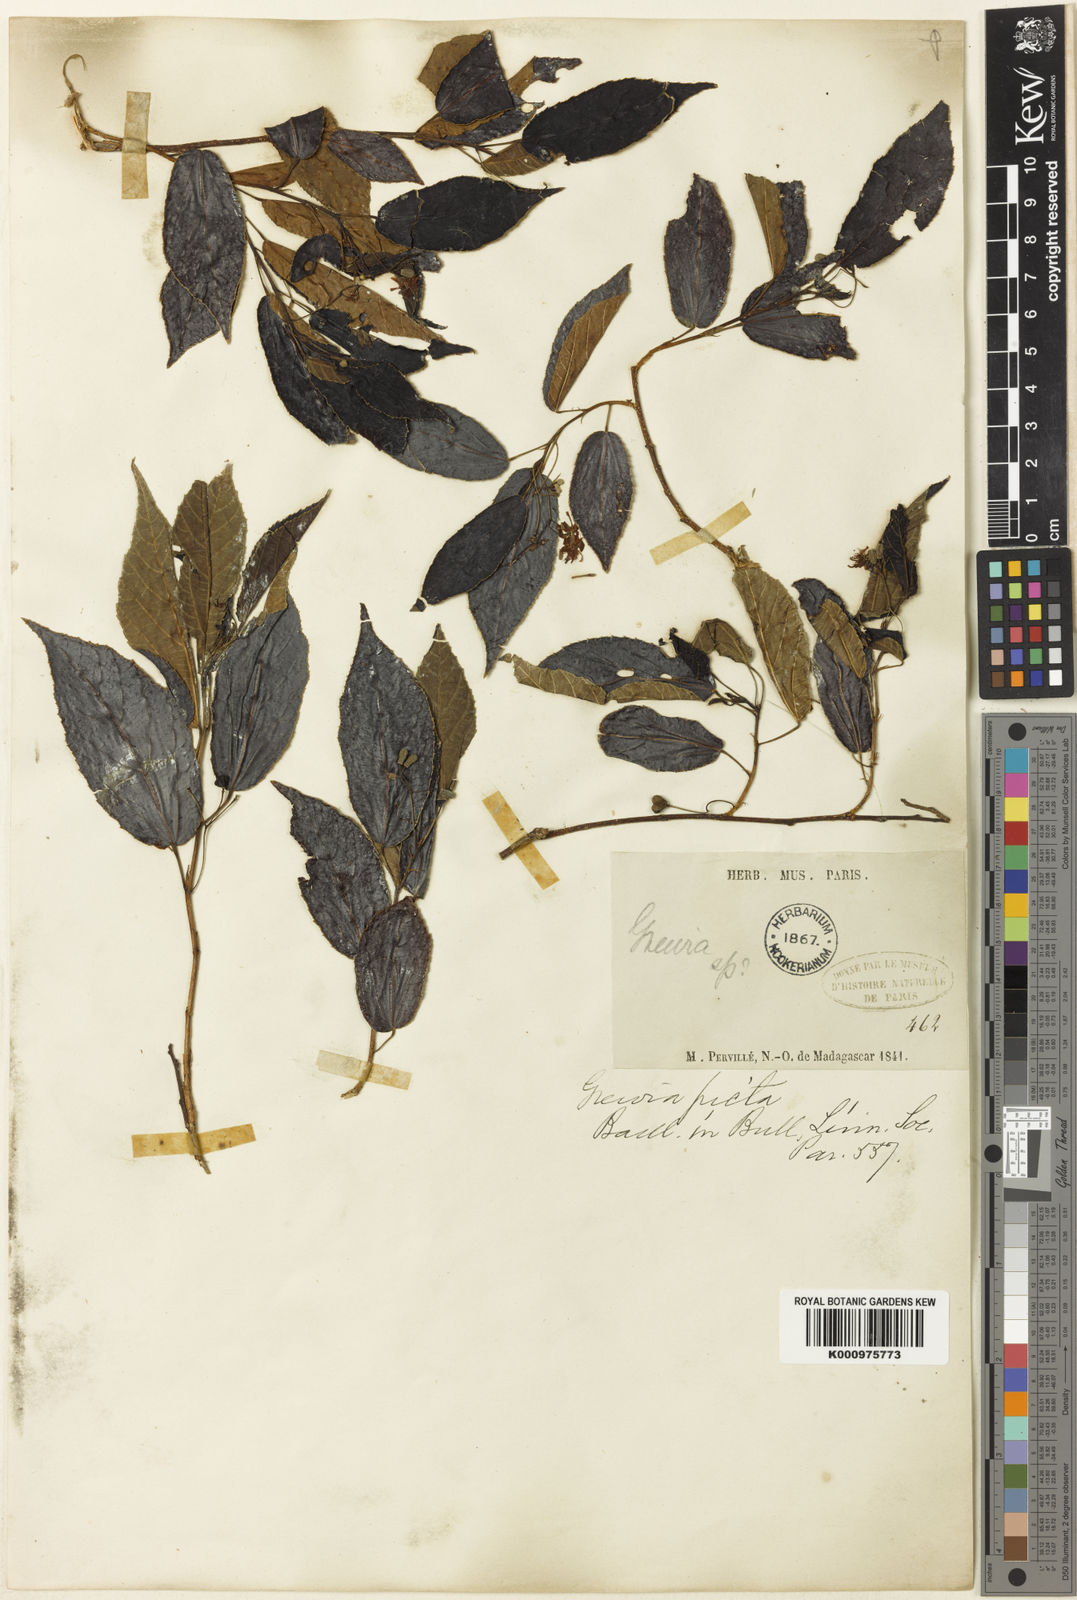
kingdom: Plantae
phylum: Tracheophyta
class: Magnoliopsida
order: Malvales
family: Malvaceae
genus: Grewia
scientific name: Grewia picta
